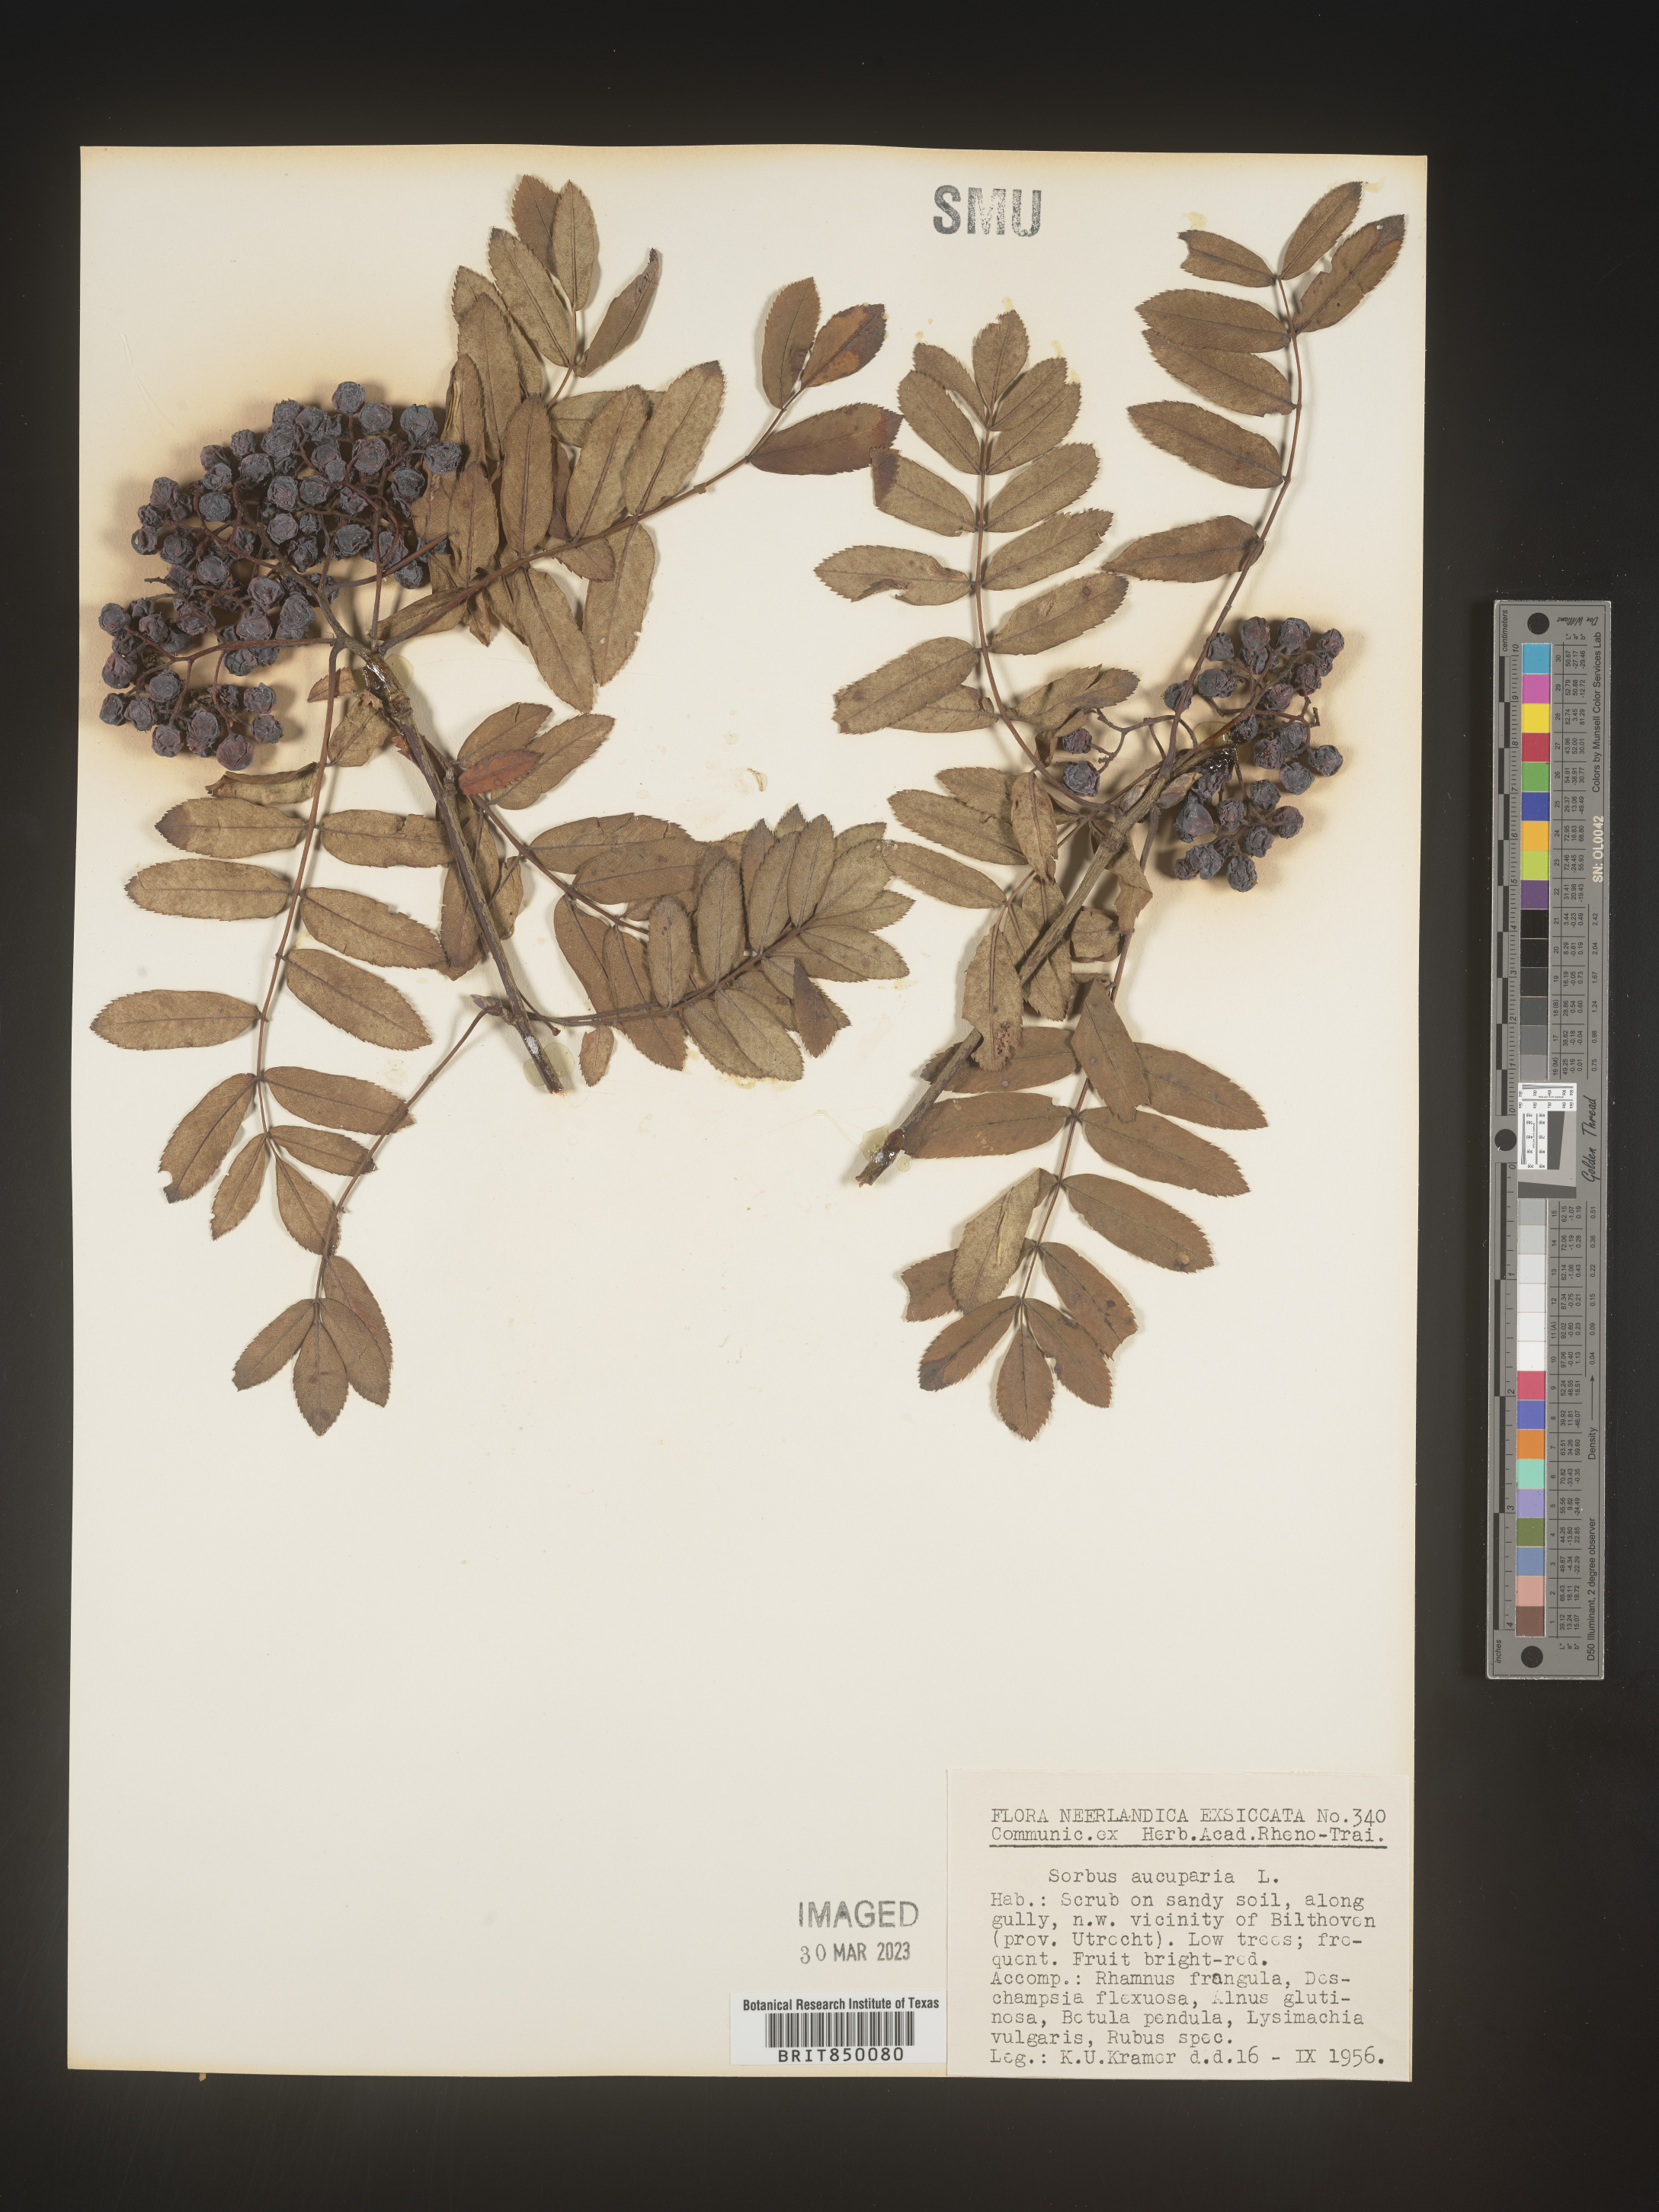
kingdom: Plantae
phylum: Tracheophyta
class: Magnoliopsida
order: Rosales
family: Rosaceae
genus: Sorbus
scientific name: Sorbus
